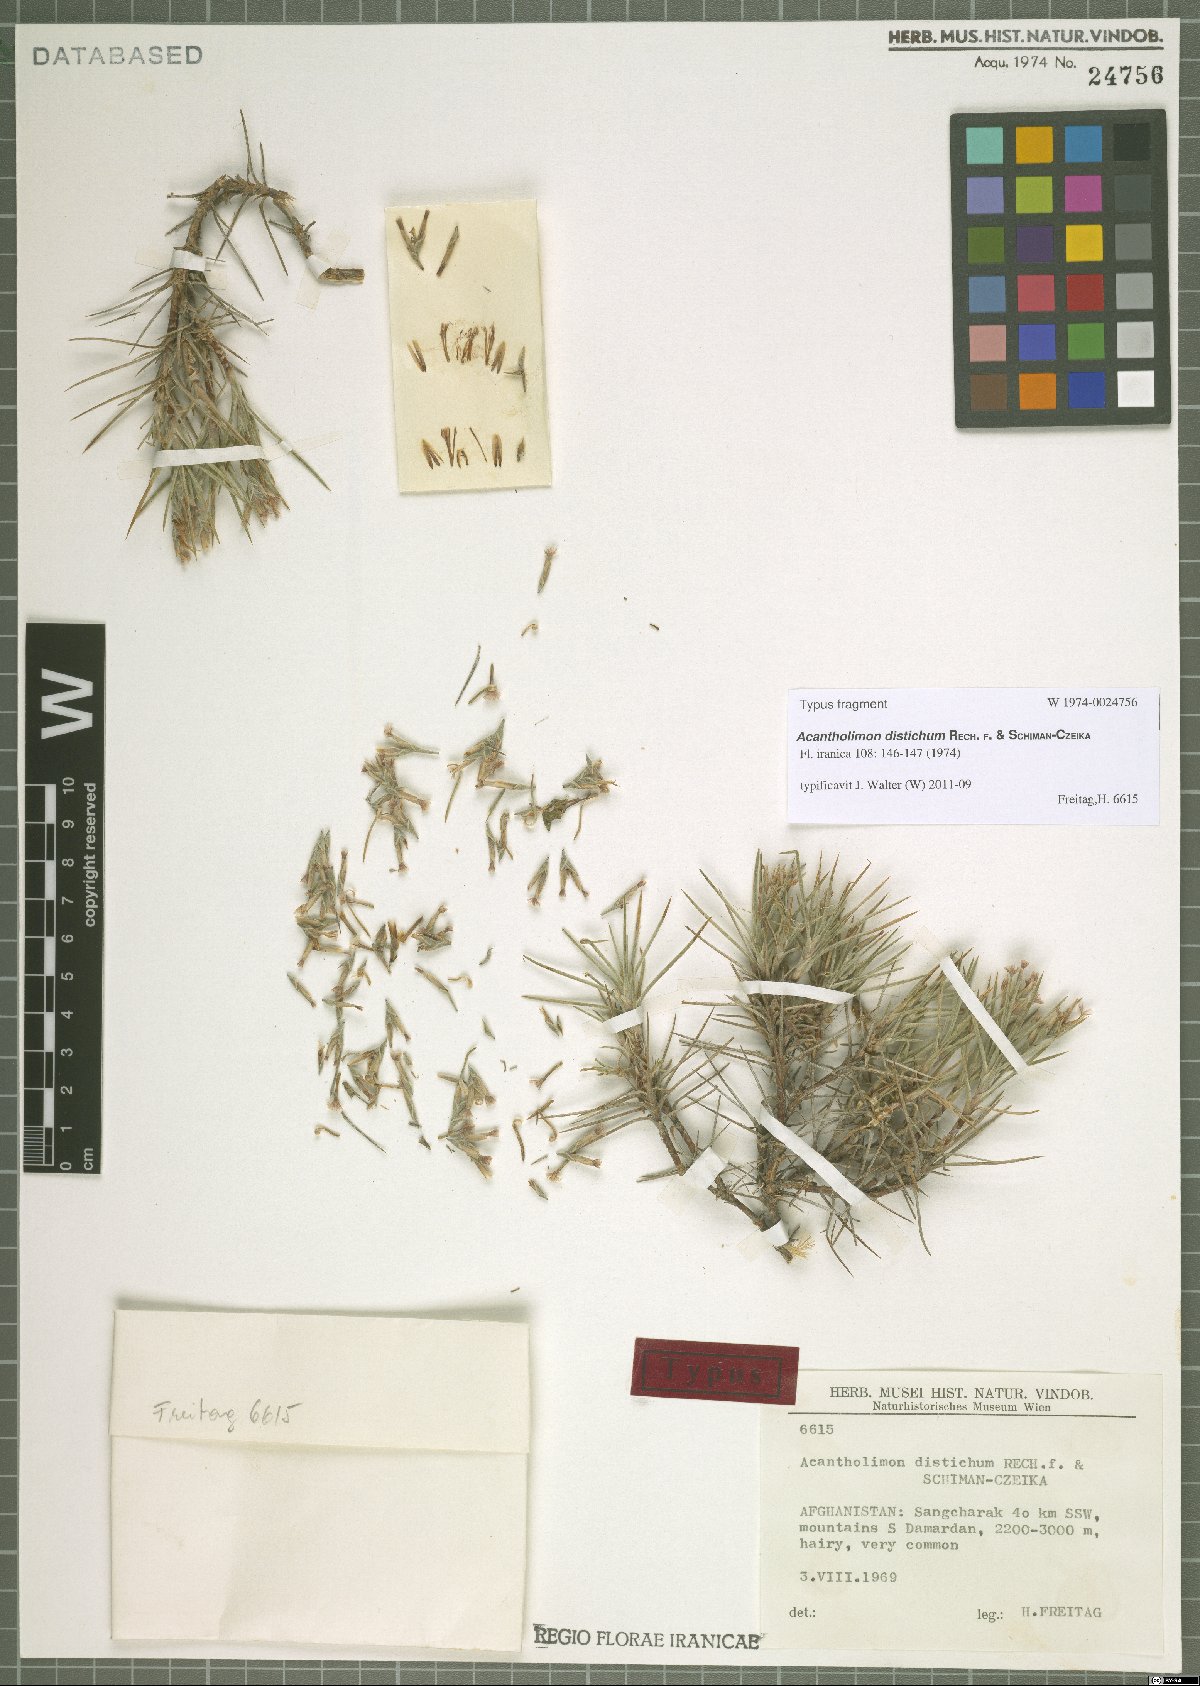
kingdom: Plantae
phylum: Tracheophyta
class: Magnoliopsida
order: Caryophyllales
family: Plumbaginaceae
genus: Acantholimon
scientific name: Acantholimon distichum
